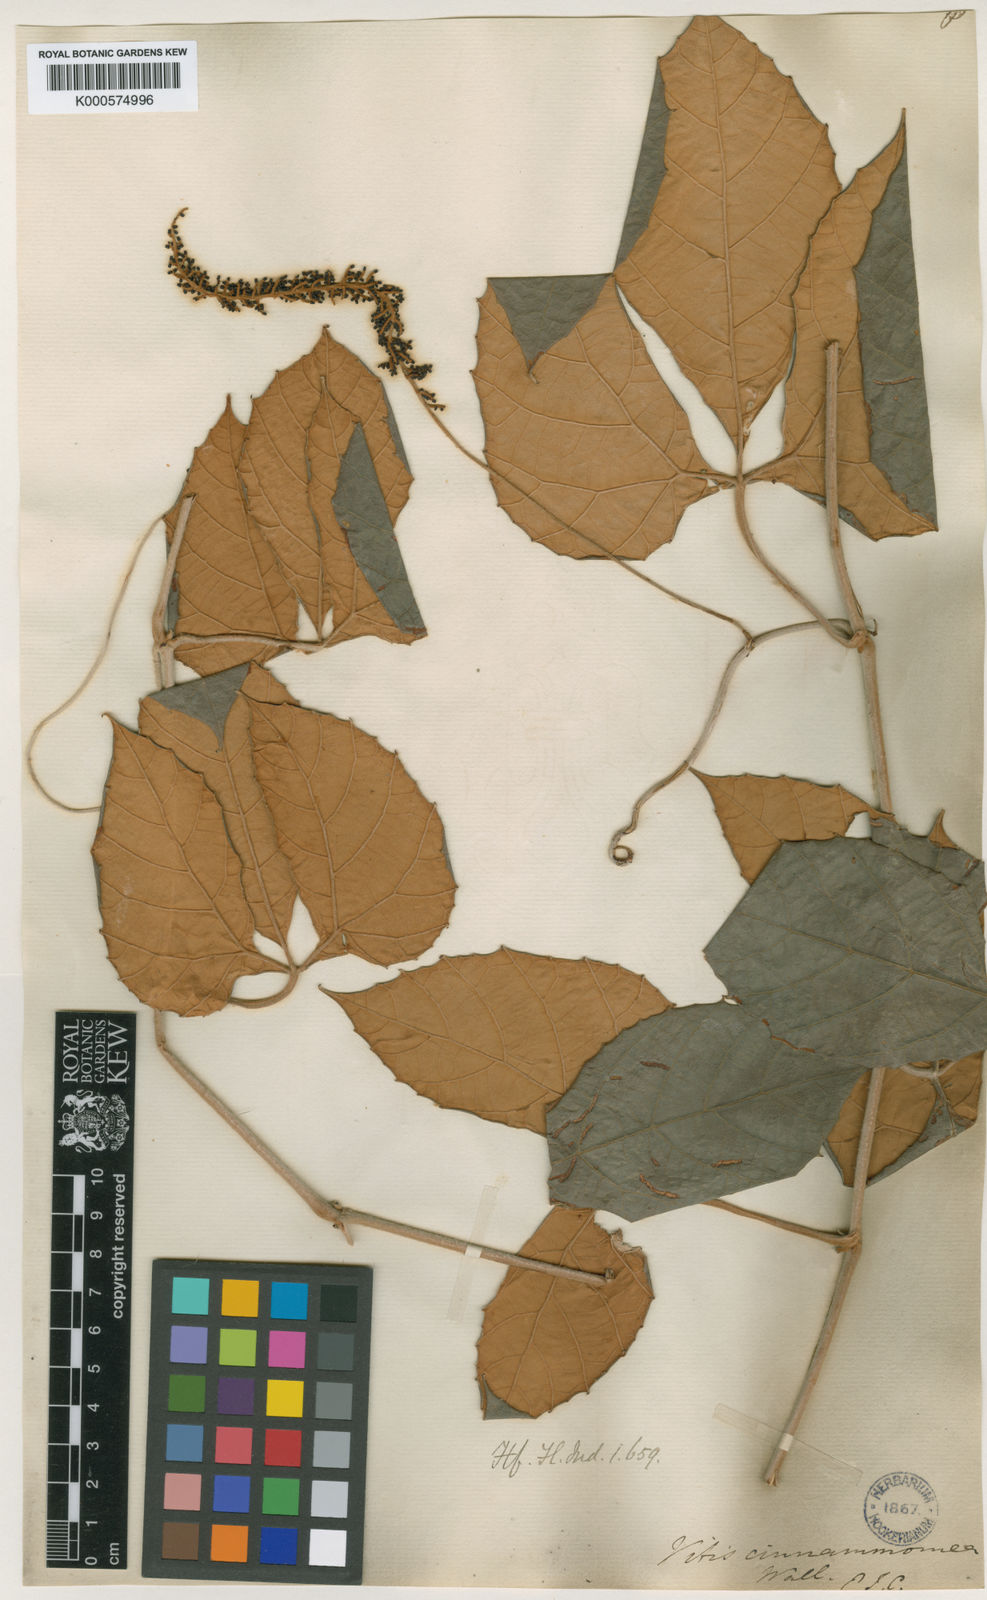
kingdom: Plantae
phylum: Tracheophyta
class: Magnoliopsida
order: Vitales
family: Vitaceae
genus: Ampelocissus
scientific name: Ampelocissus cinnamomea
